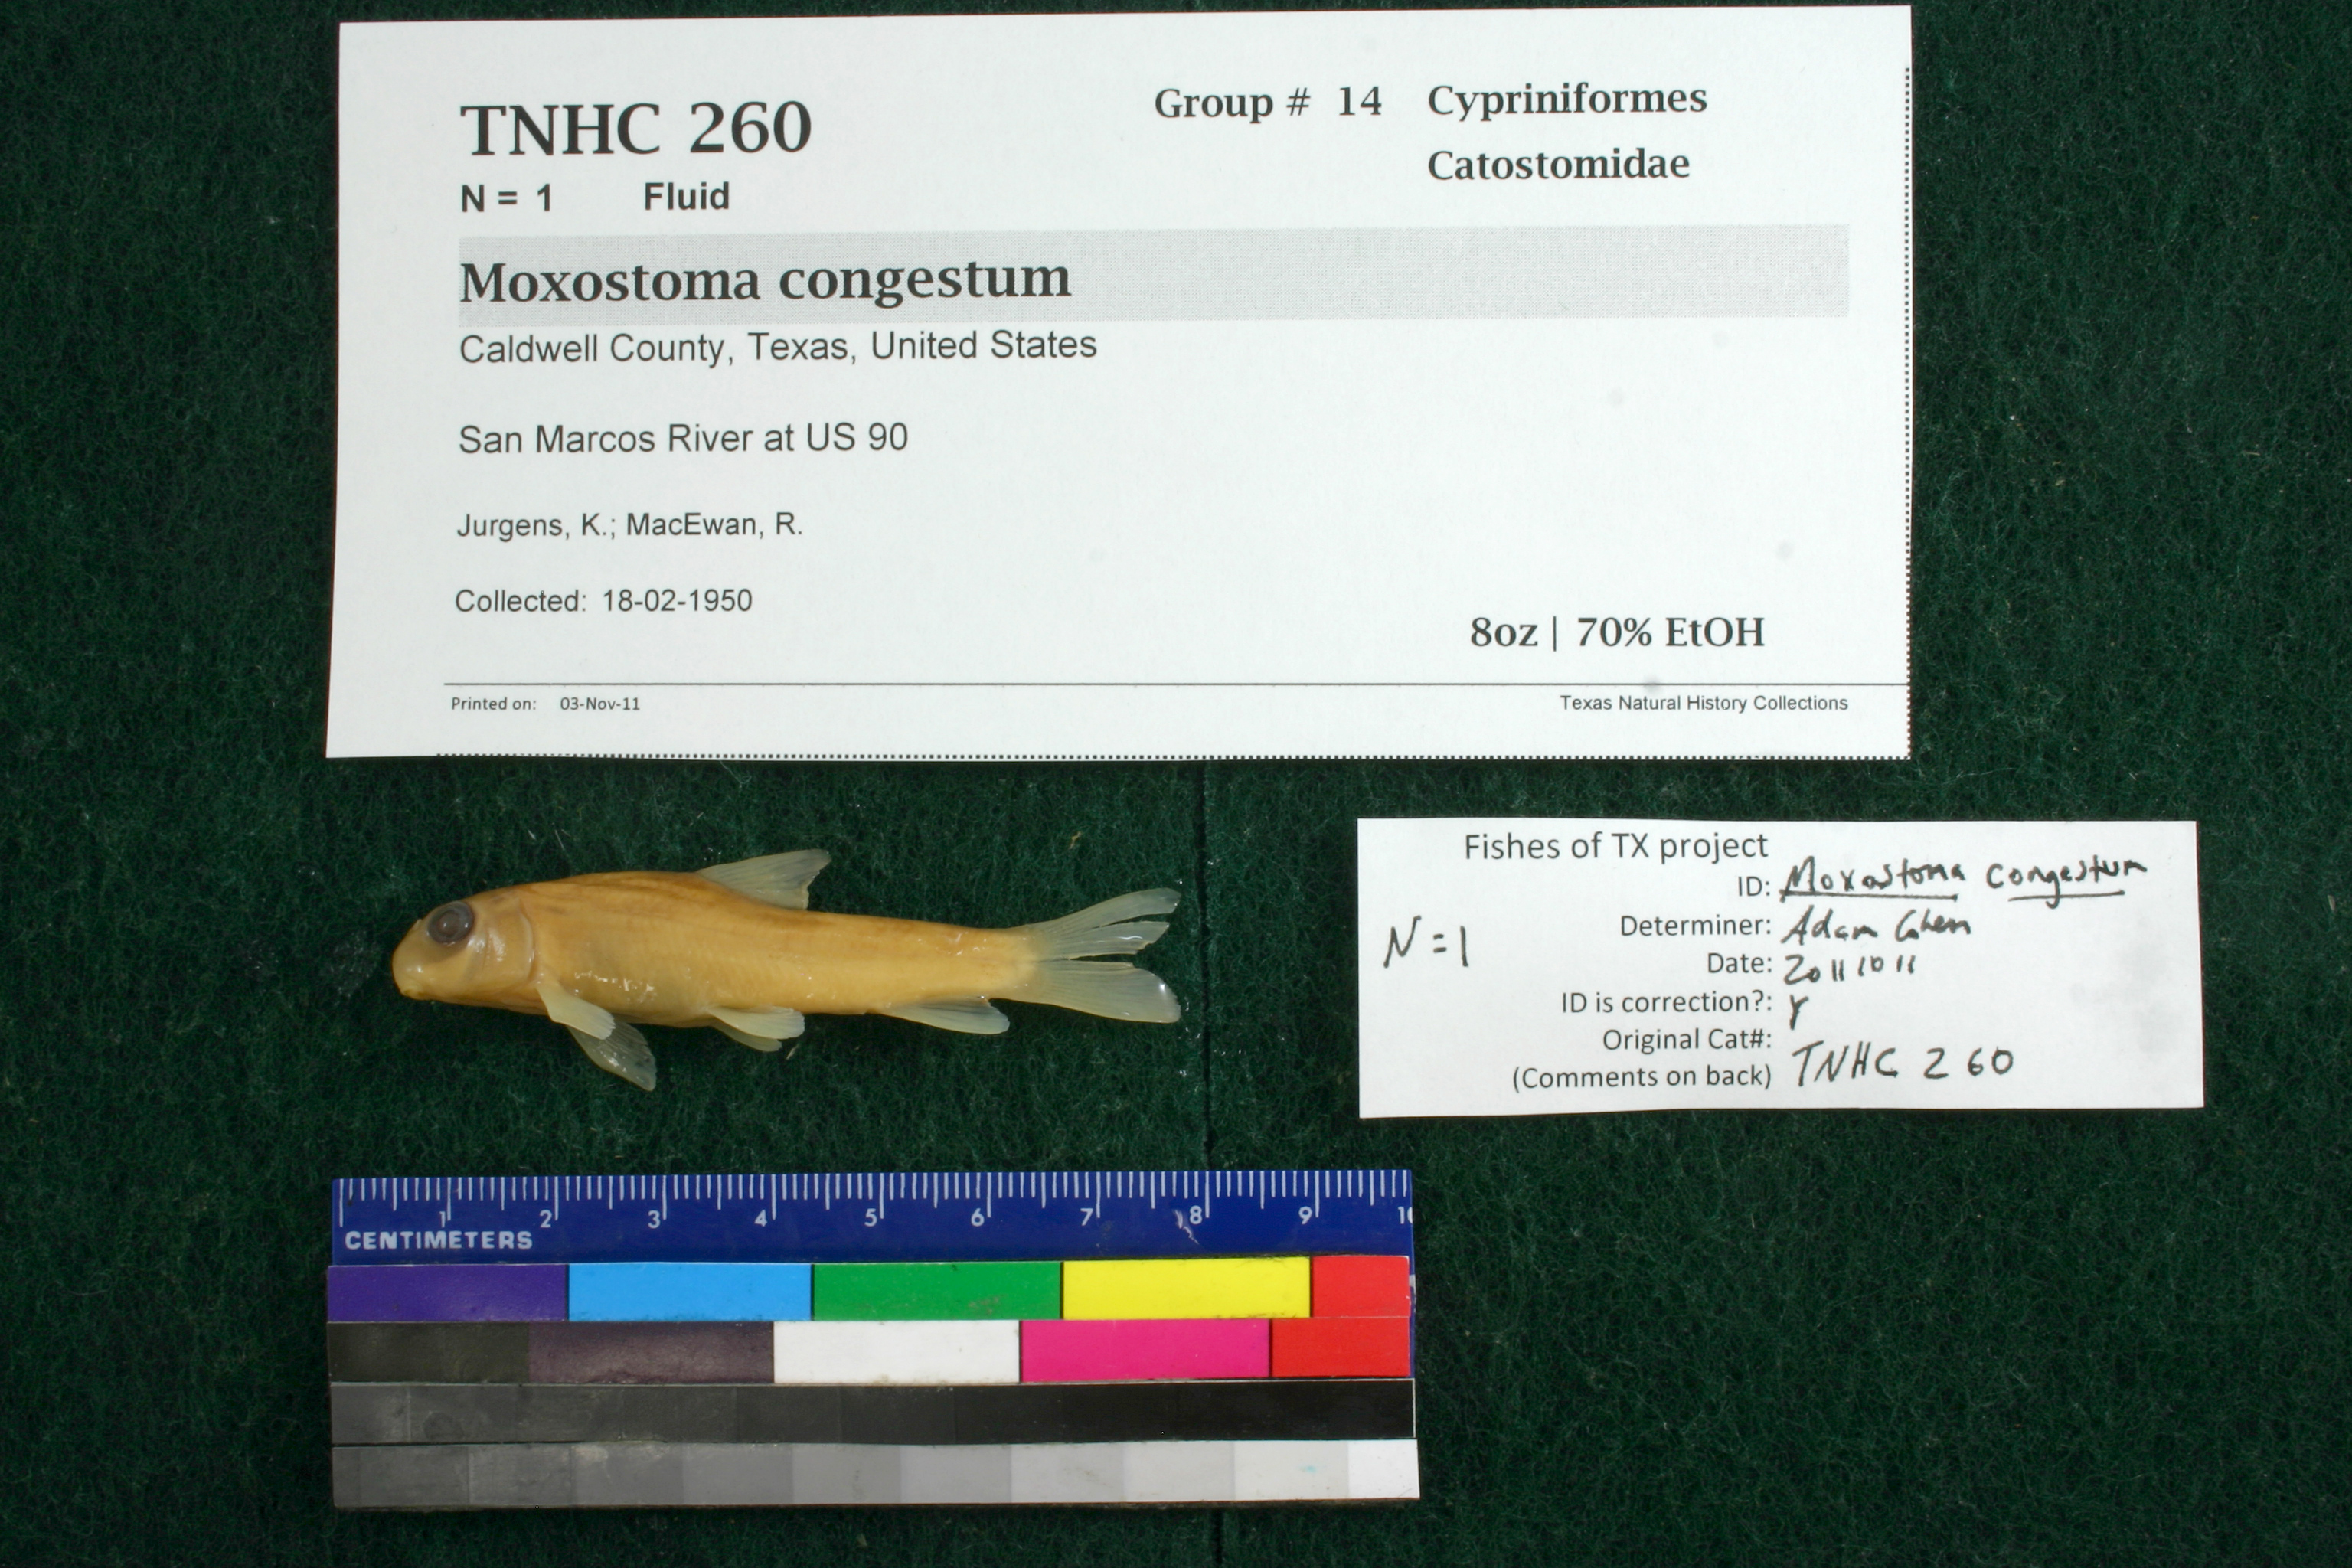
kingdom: Animalia
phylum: Chordata
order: Cypriniformes
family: Catostomidae
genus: Moxostoma
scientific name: Moxostoma congestum
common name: Gray redhorse
